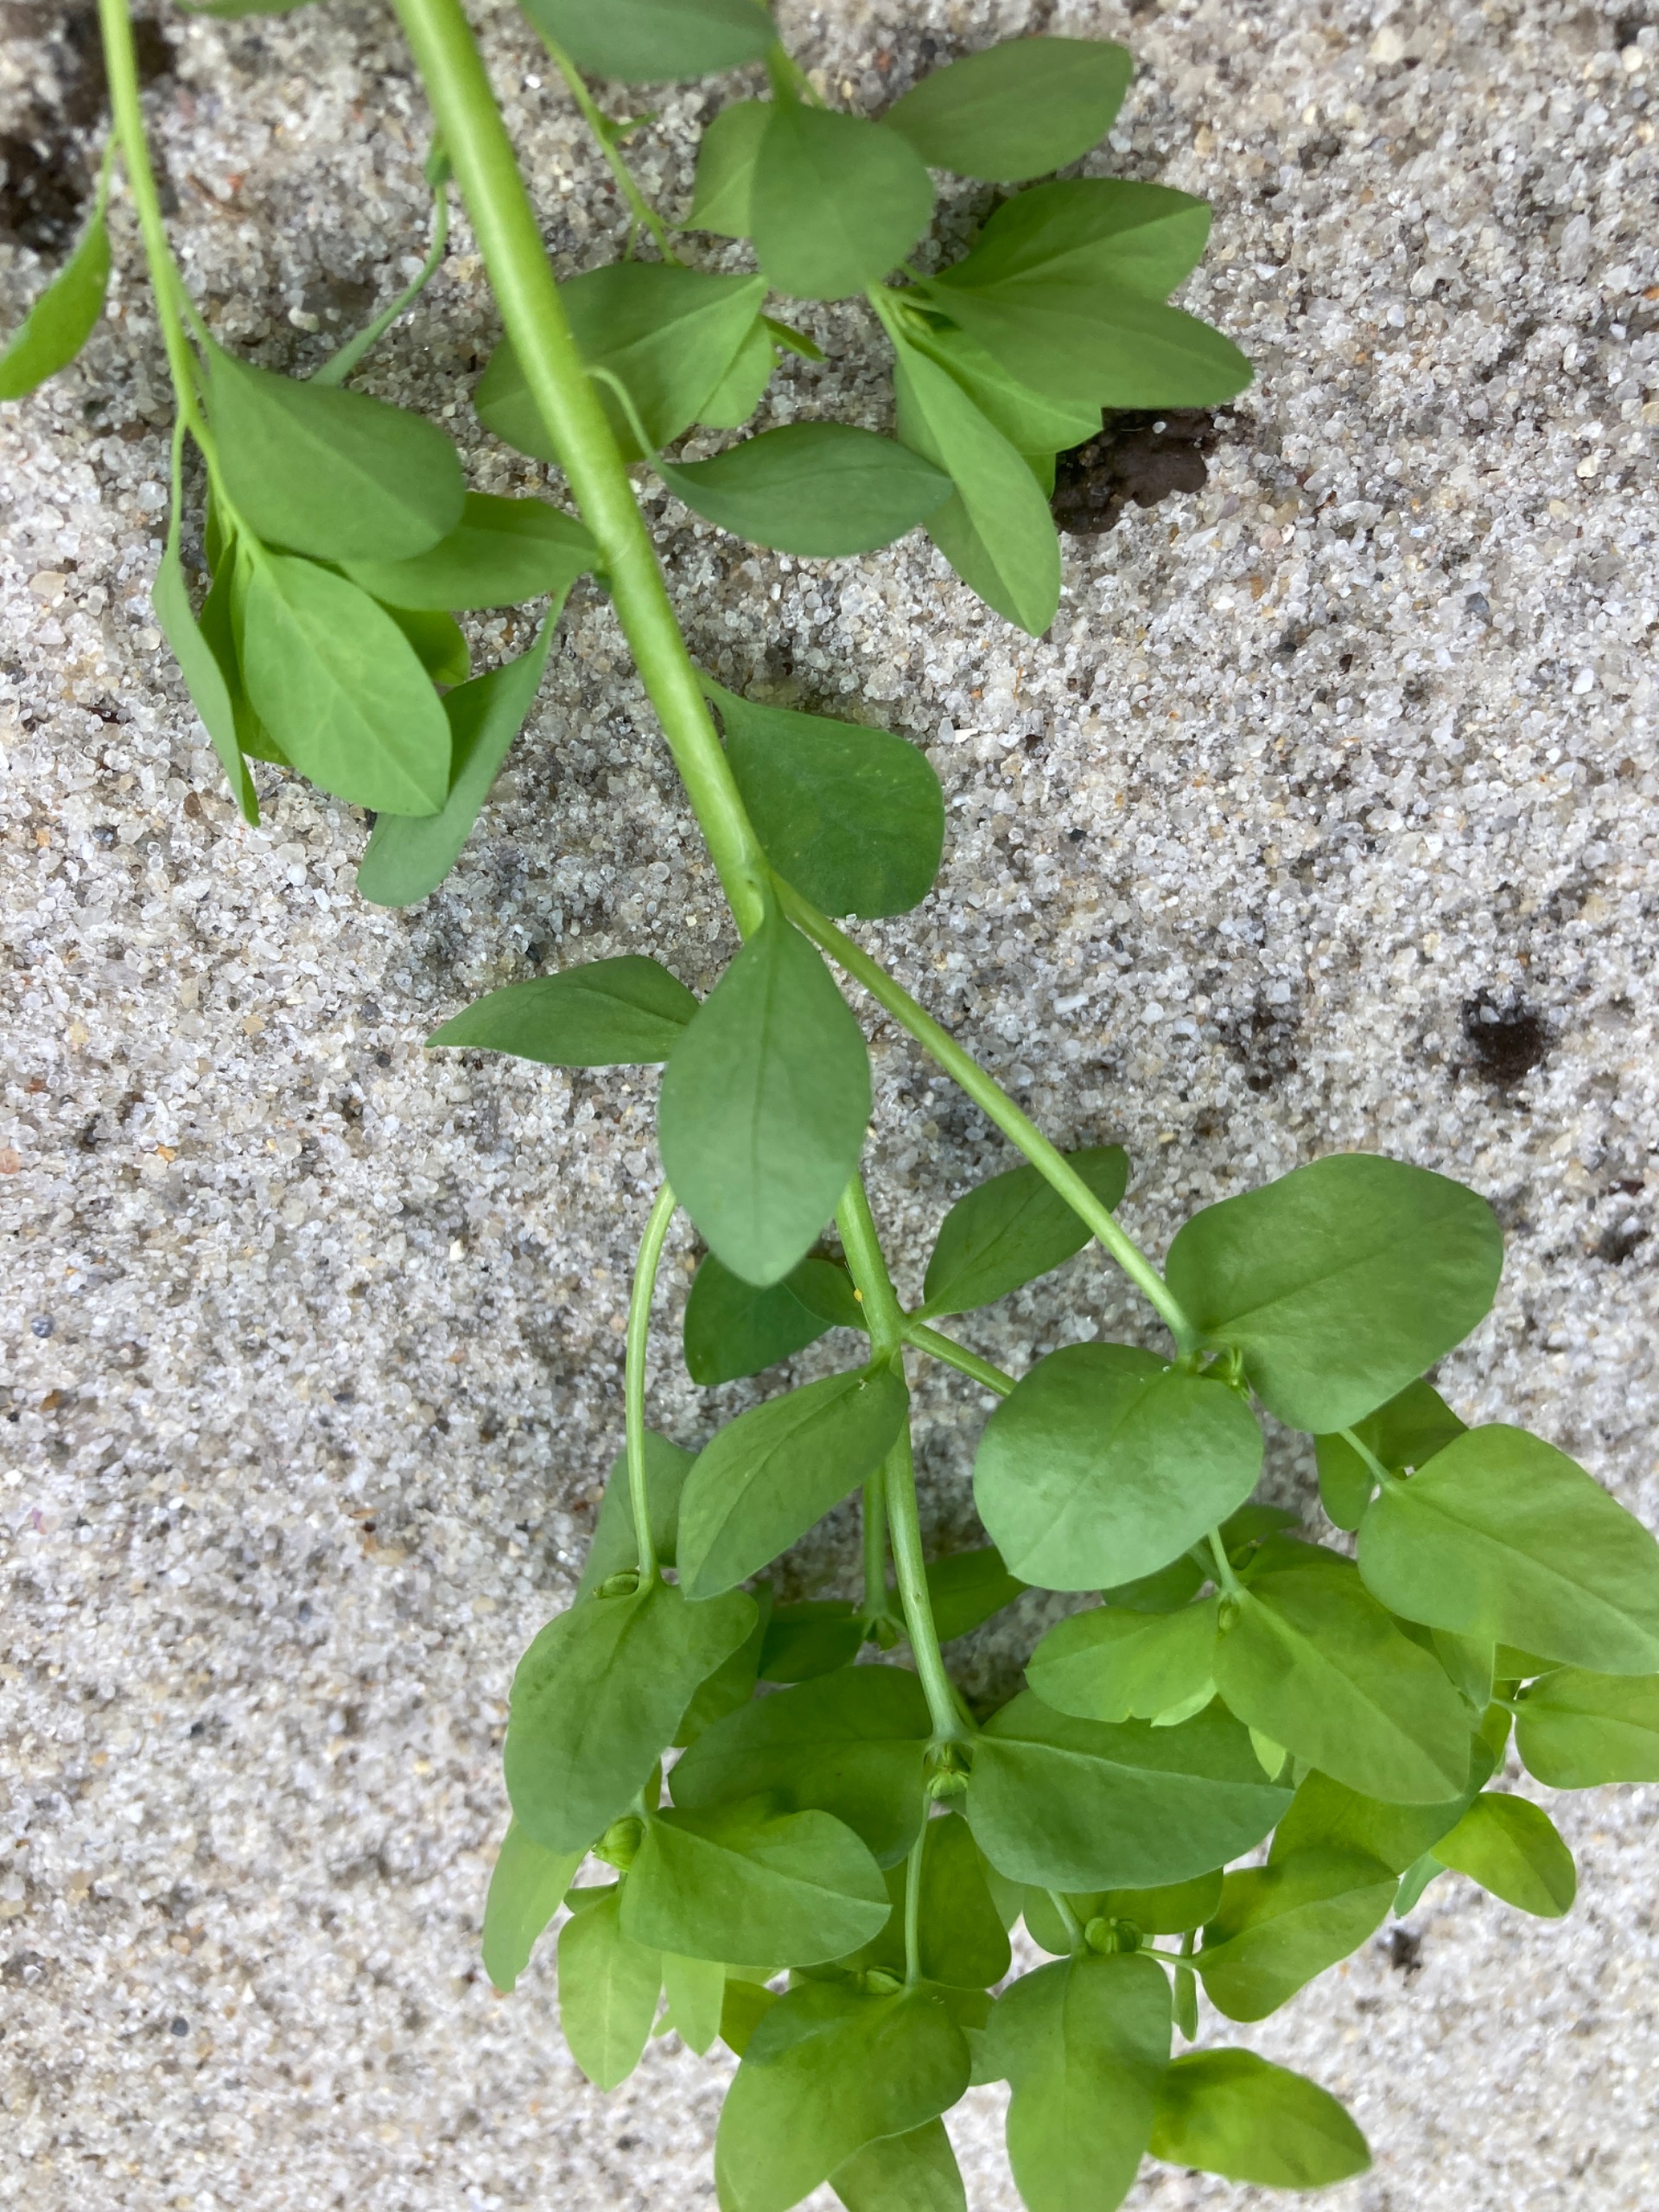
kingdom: Plantae
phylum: Tracheophyta
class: Magnoliopsida
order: Malpighiales
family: Euphorbiaceae
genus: Euphorbia
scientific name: Euphorbia peplus
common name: Gaffel-vortemælk
